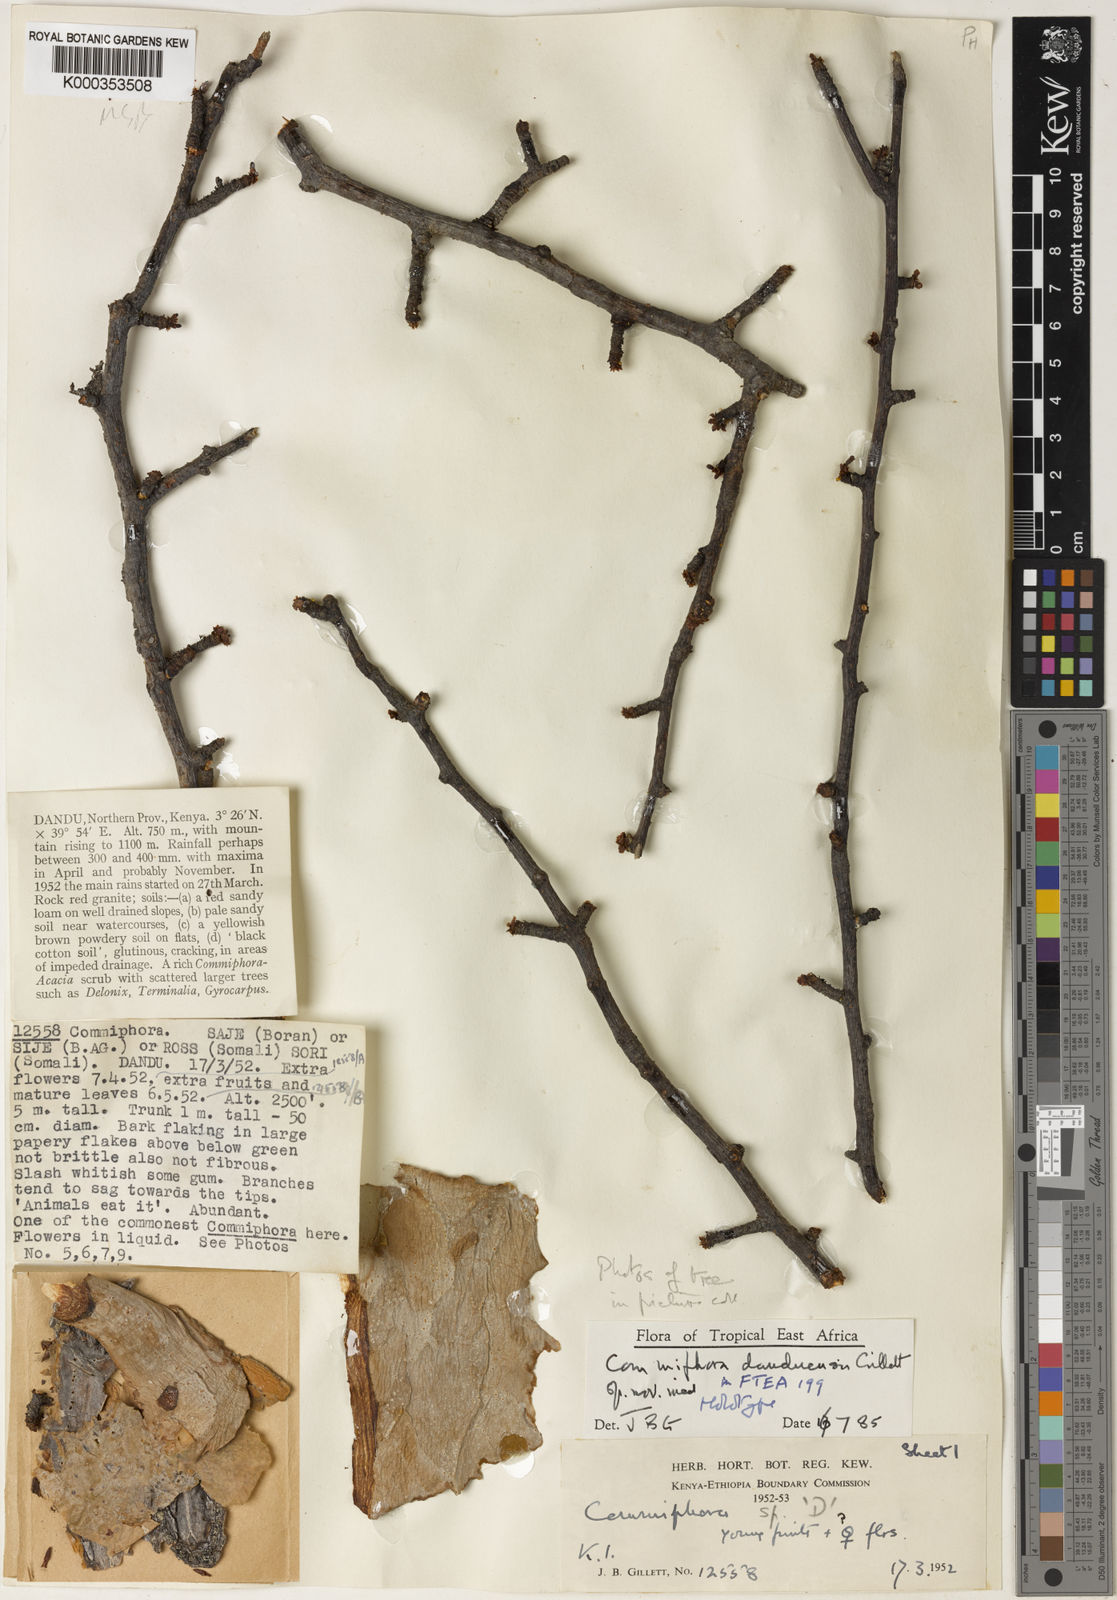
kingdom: Plantae
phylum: Tracheophyta
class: Magnoliopsida
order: Sapindales
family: Burseraceae
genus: Commiphora
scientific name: Commiphora samharensis
